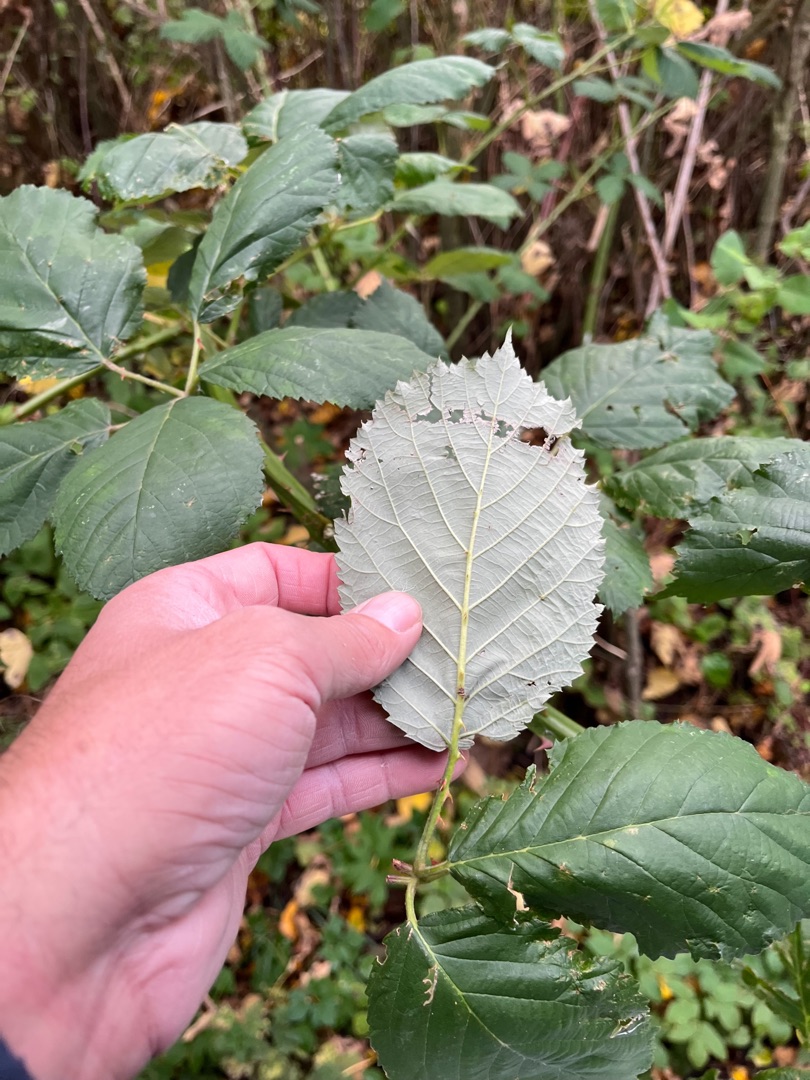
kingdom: Plantae
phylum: Tracheophyta
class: Magnoliopsida
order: Rosales
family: Rosaceae
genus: Rubus
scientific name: Rubus armeniacus
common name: Armensk brombær
